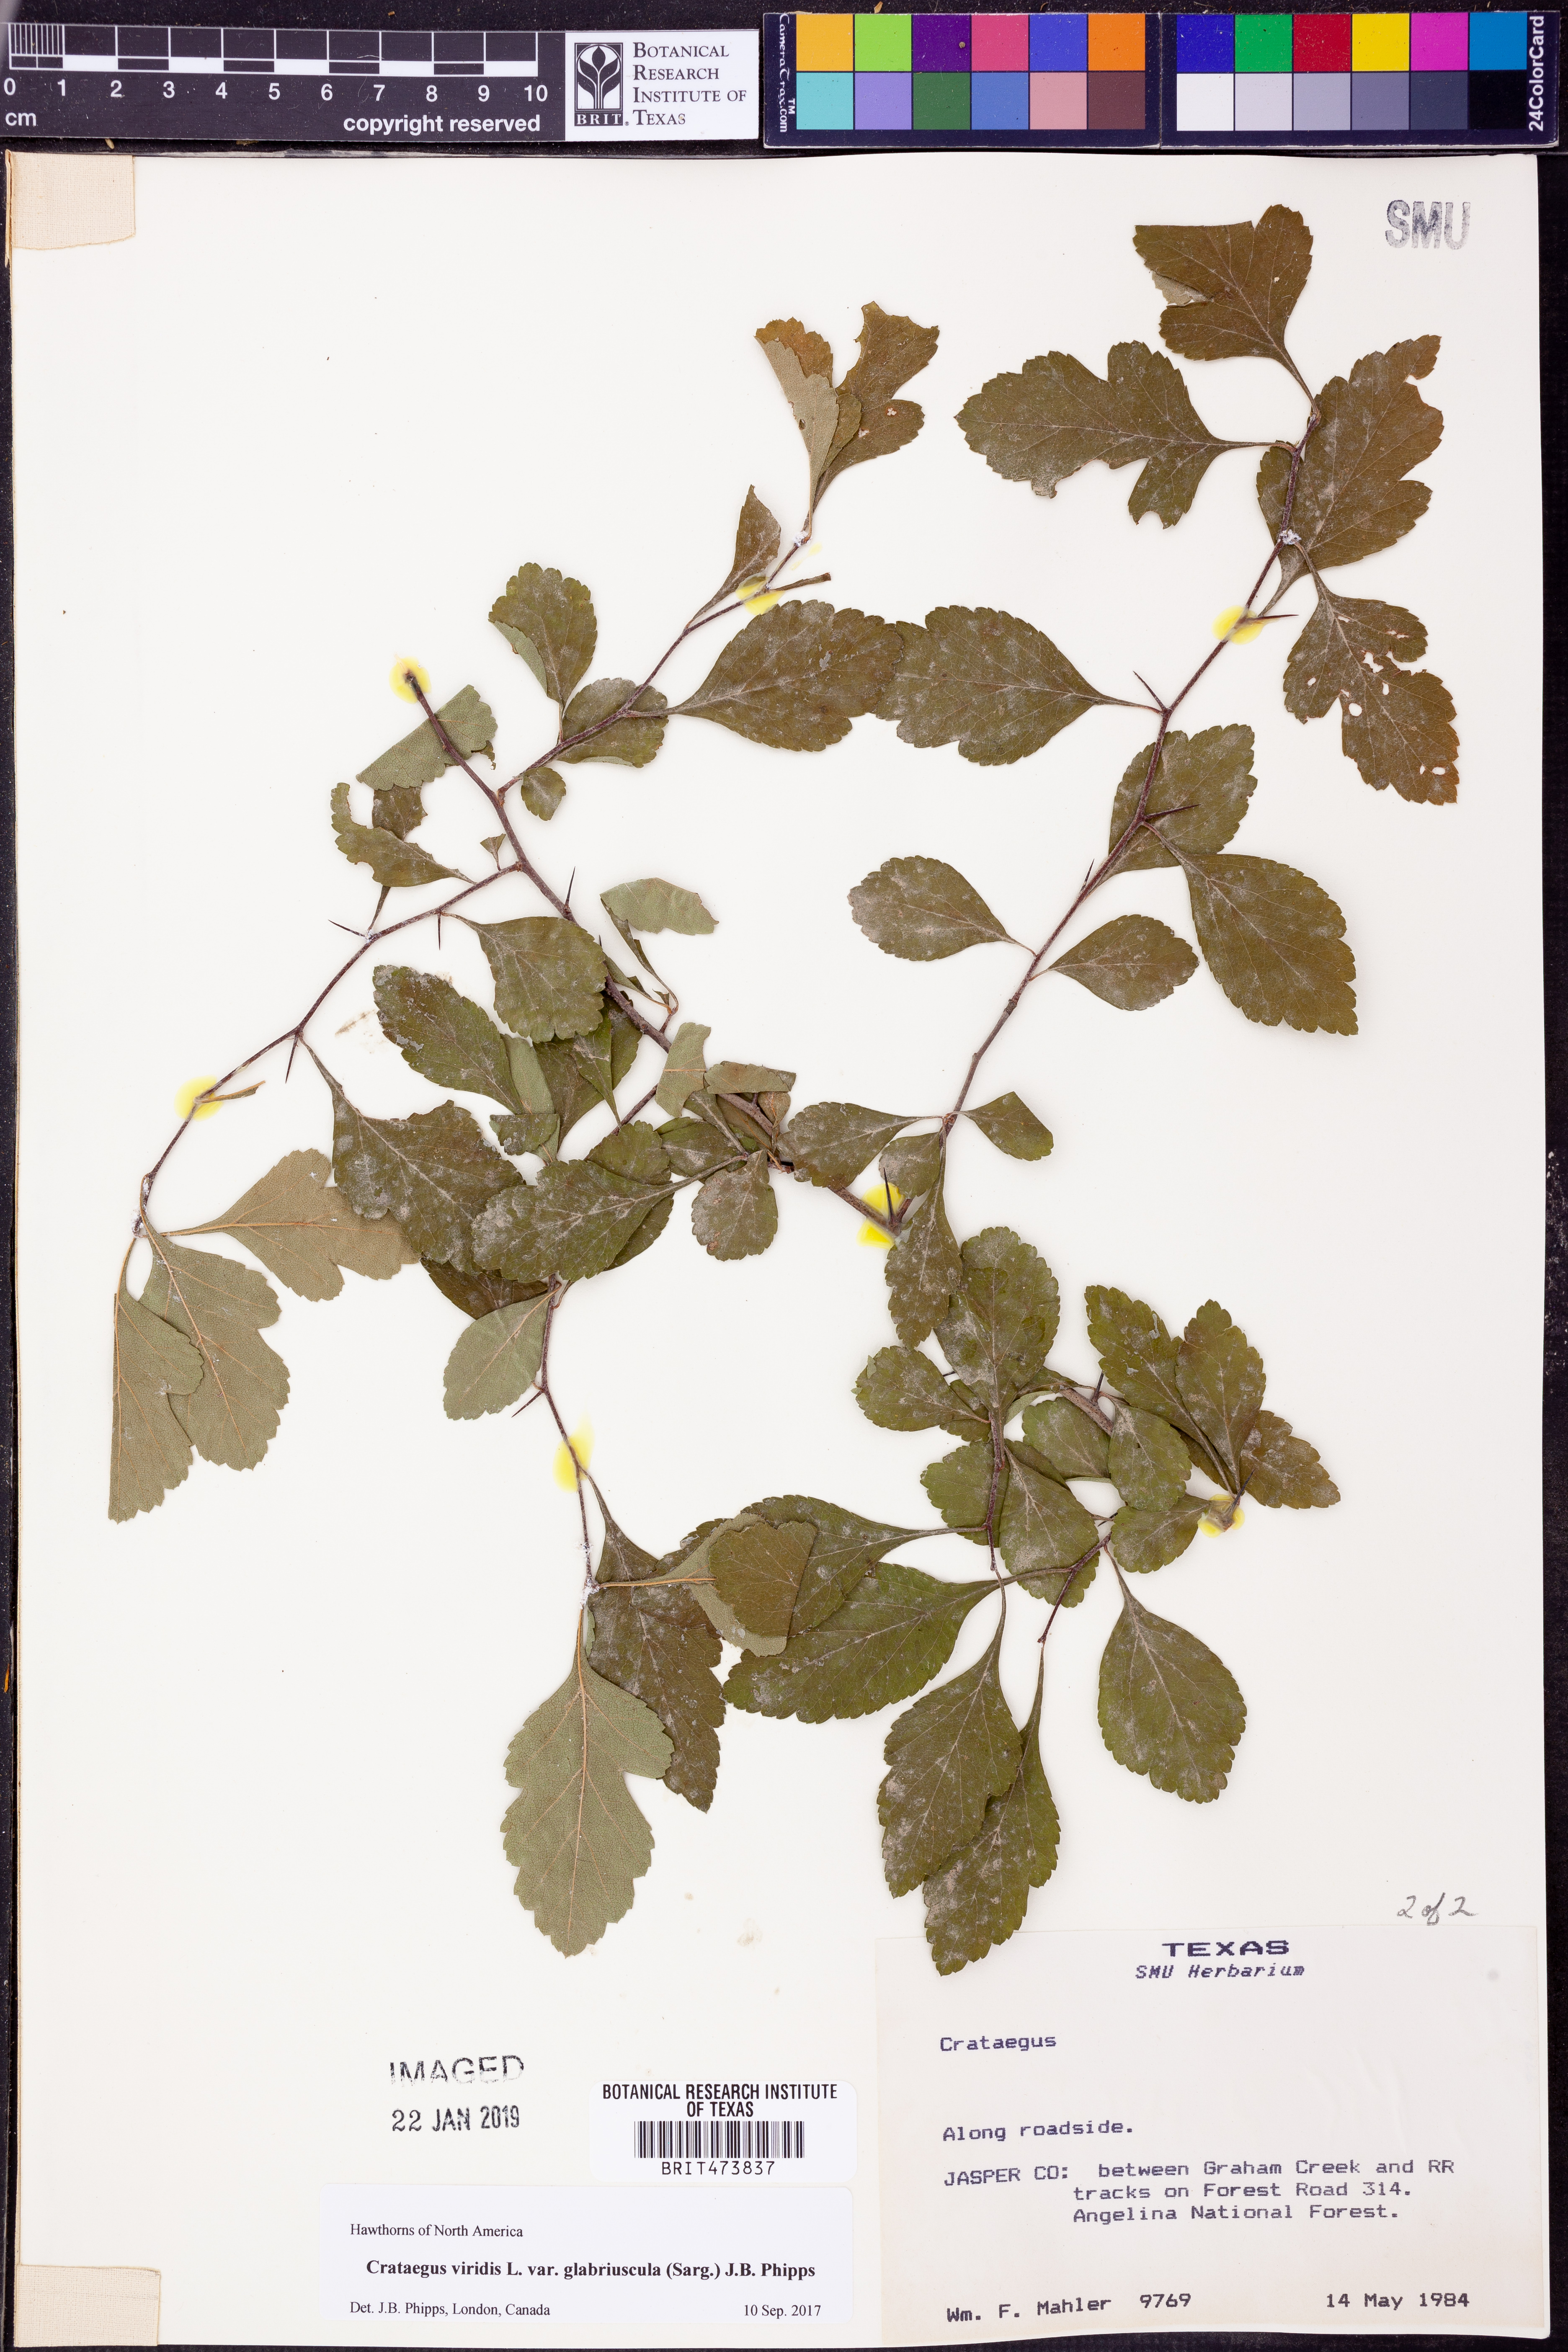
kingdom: Plantae
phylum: Tracheophyta
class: Magnoliopsida
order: Rosales
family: Rosaceae
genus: Crataegus
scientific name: Crataegus viridis
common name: Southernthorn
